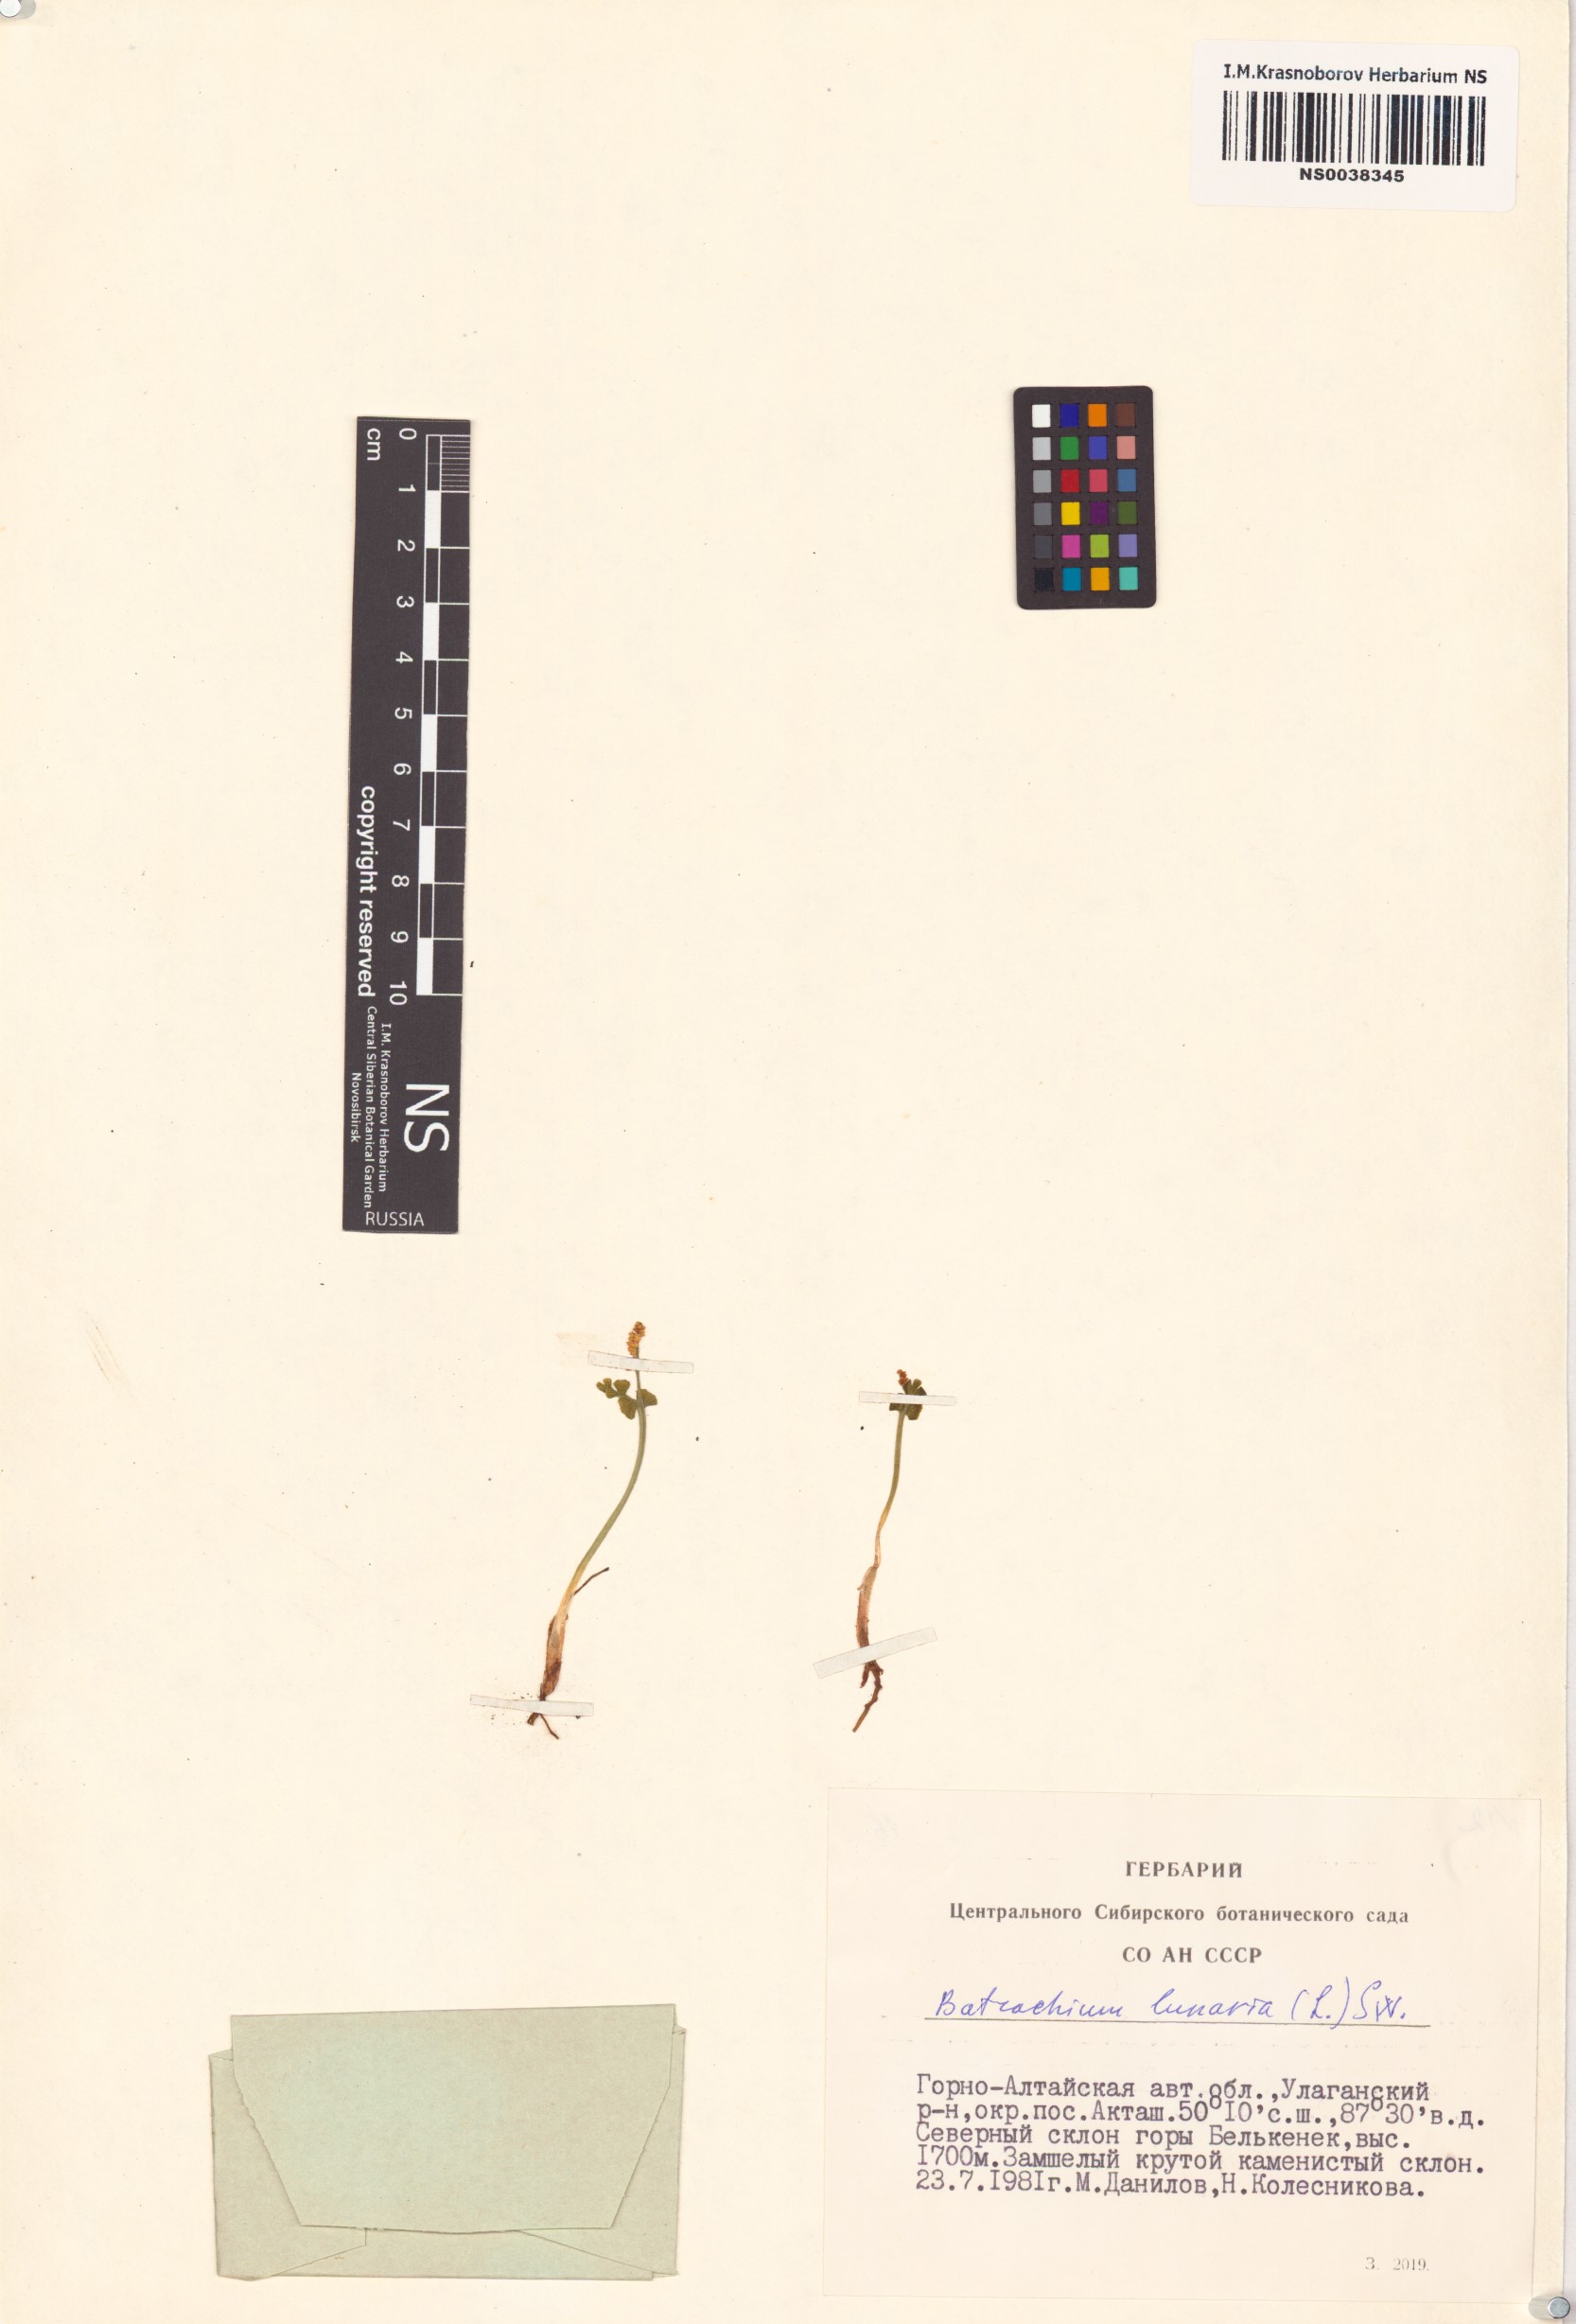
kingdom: Plantae
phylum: Tracheophyta
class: Polypodiopsida
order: Ophioglossales
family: Ophioglossaceae
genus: Botrychium
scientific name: Botrychium lunaria
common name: Moonwort
